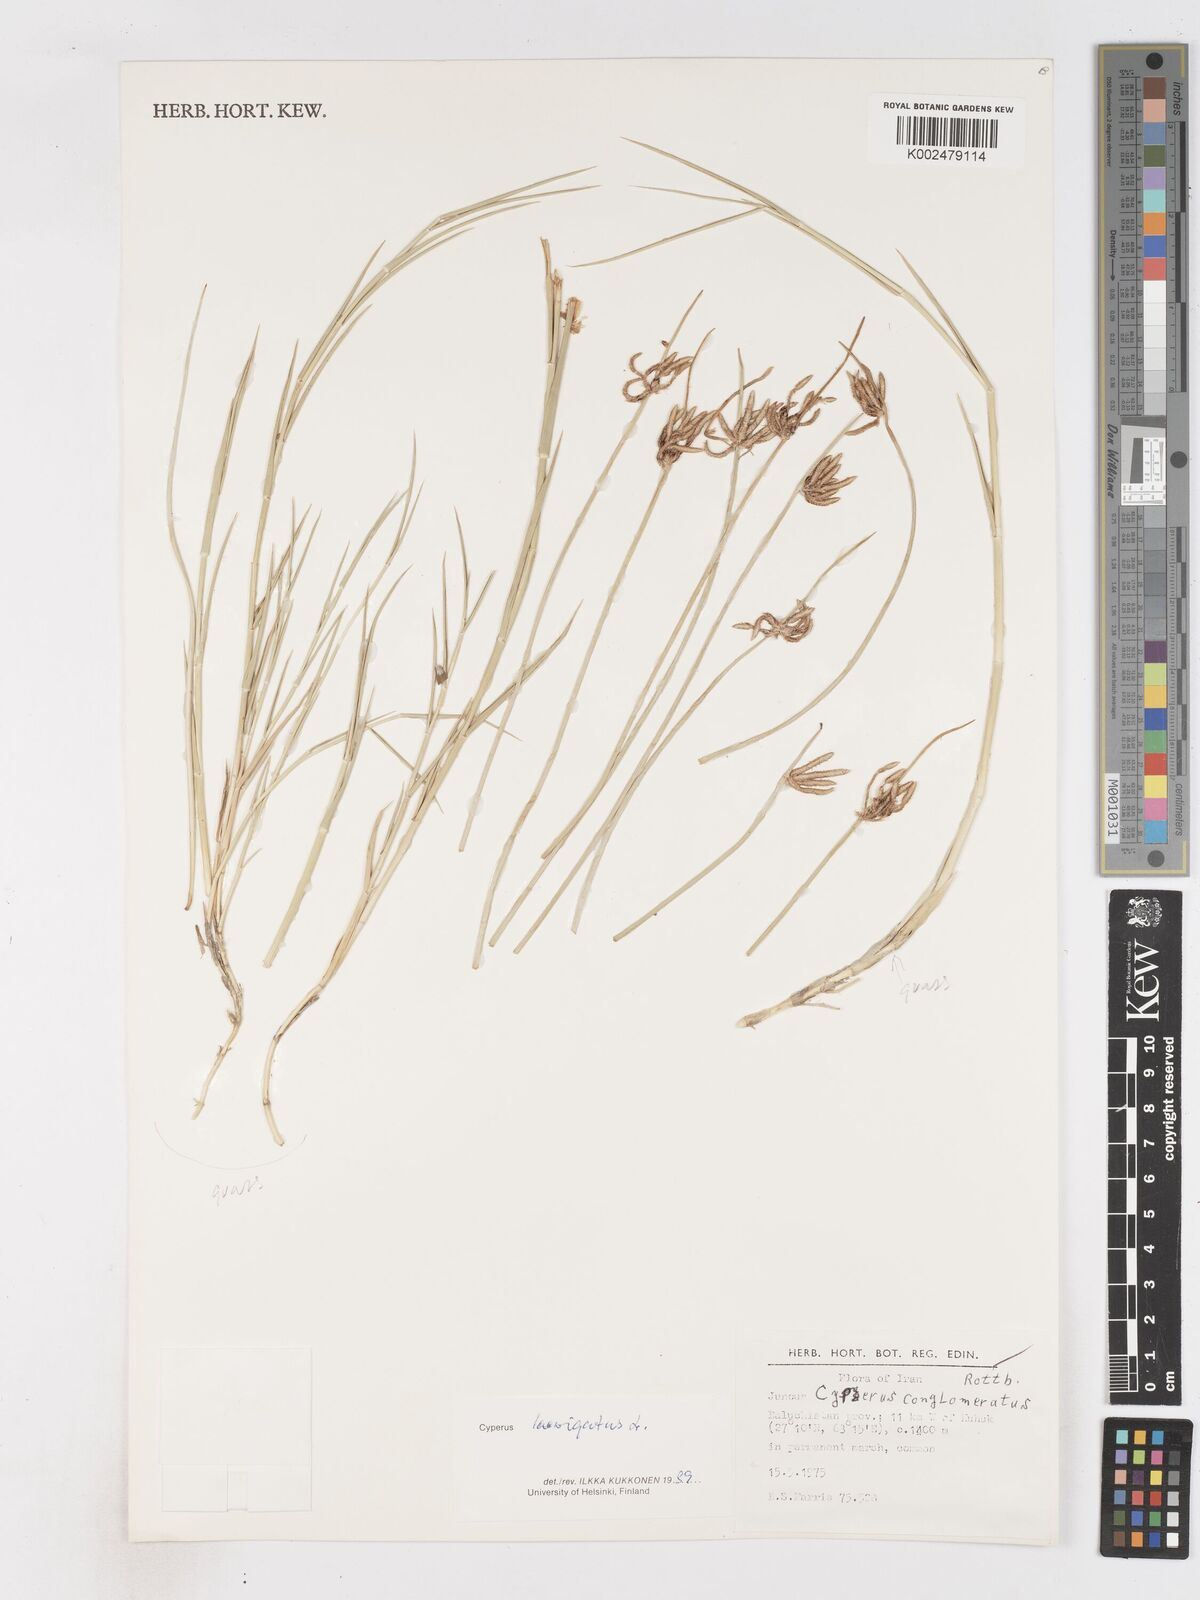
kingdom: Plantae
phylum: Tracheophyta
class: Liliopsida
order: Poales
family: Cyperaceae
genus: Cyperus
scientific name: Cyperus laevigatus
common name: Smooth flat sedge
